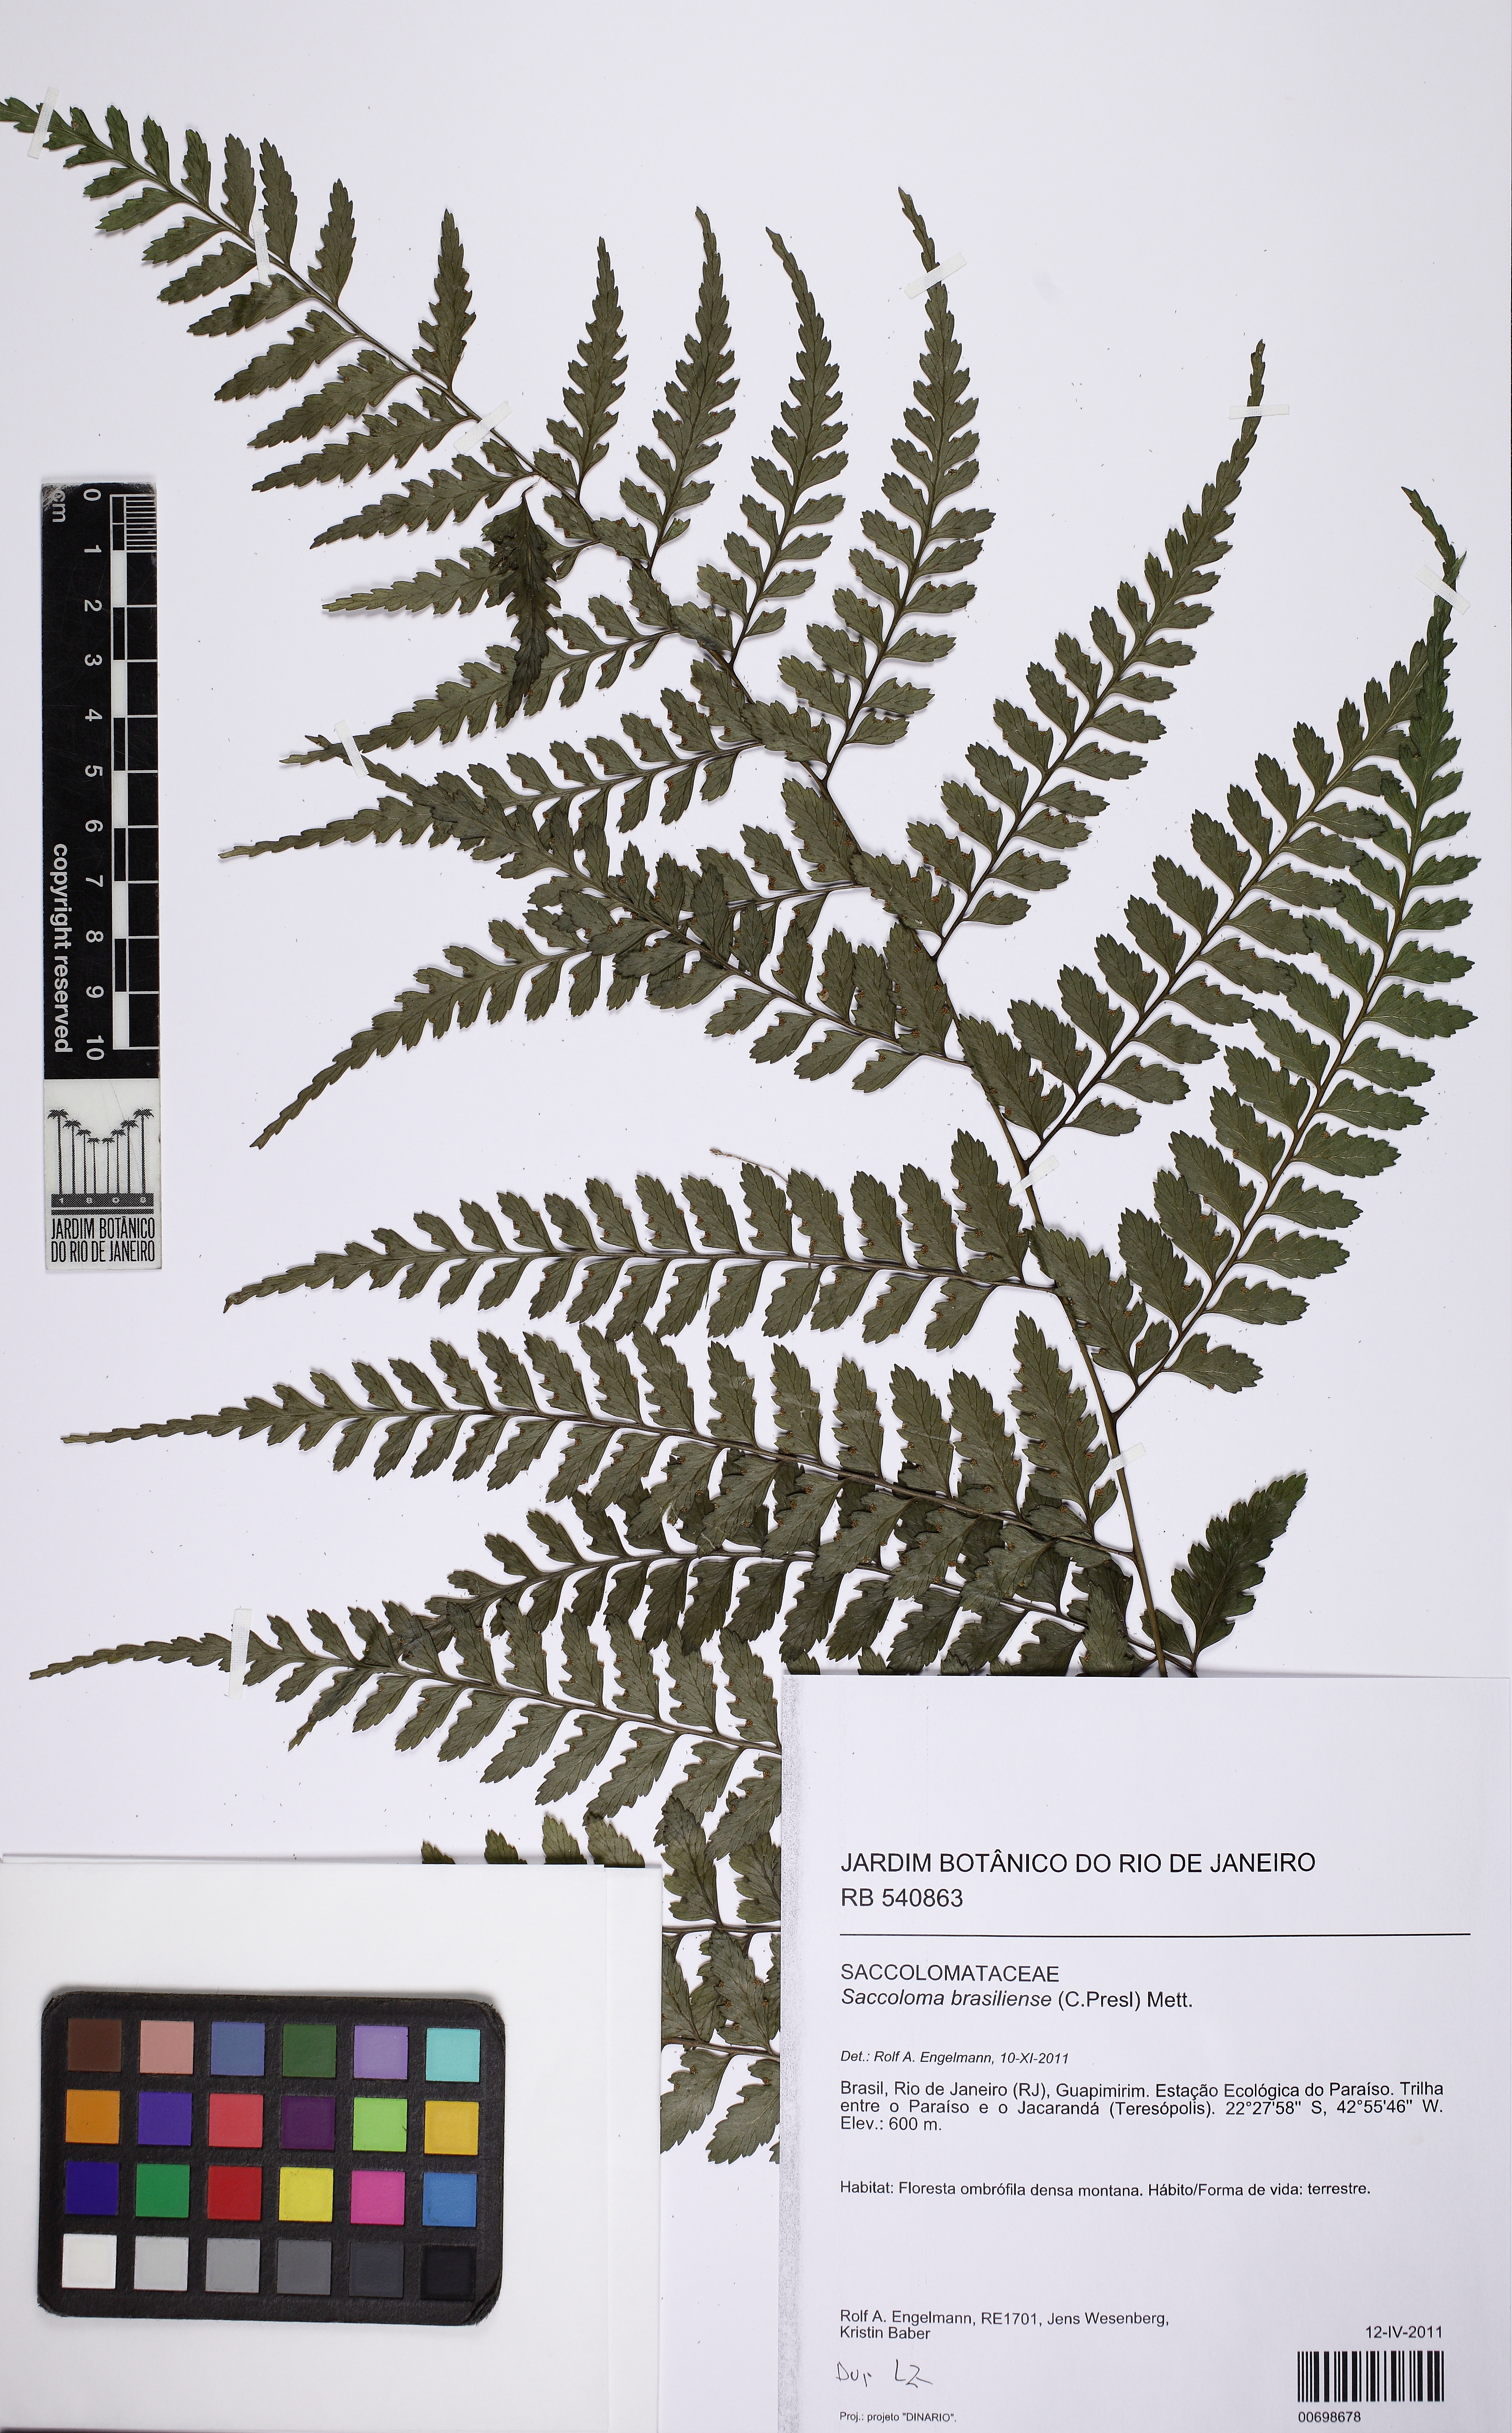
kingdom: Plantae
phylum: Tracheophyta
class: Polypodiopsida
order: Polypodiales
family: Saccolomataceae
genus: Saccoloma
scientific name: Saccoloma brasiliense
